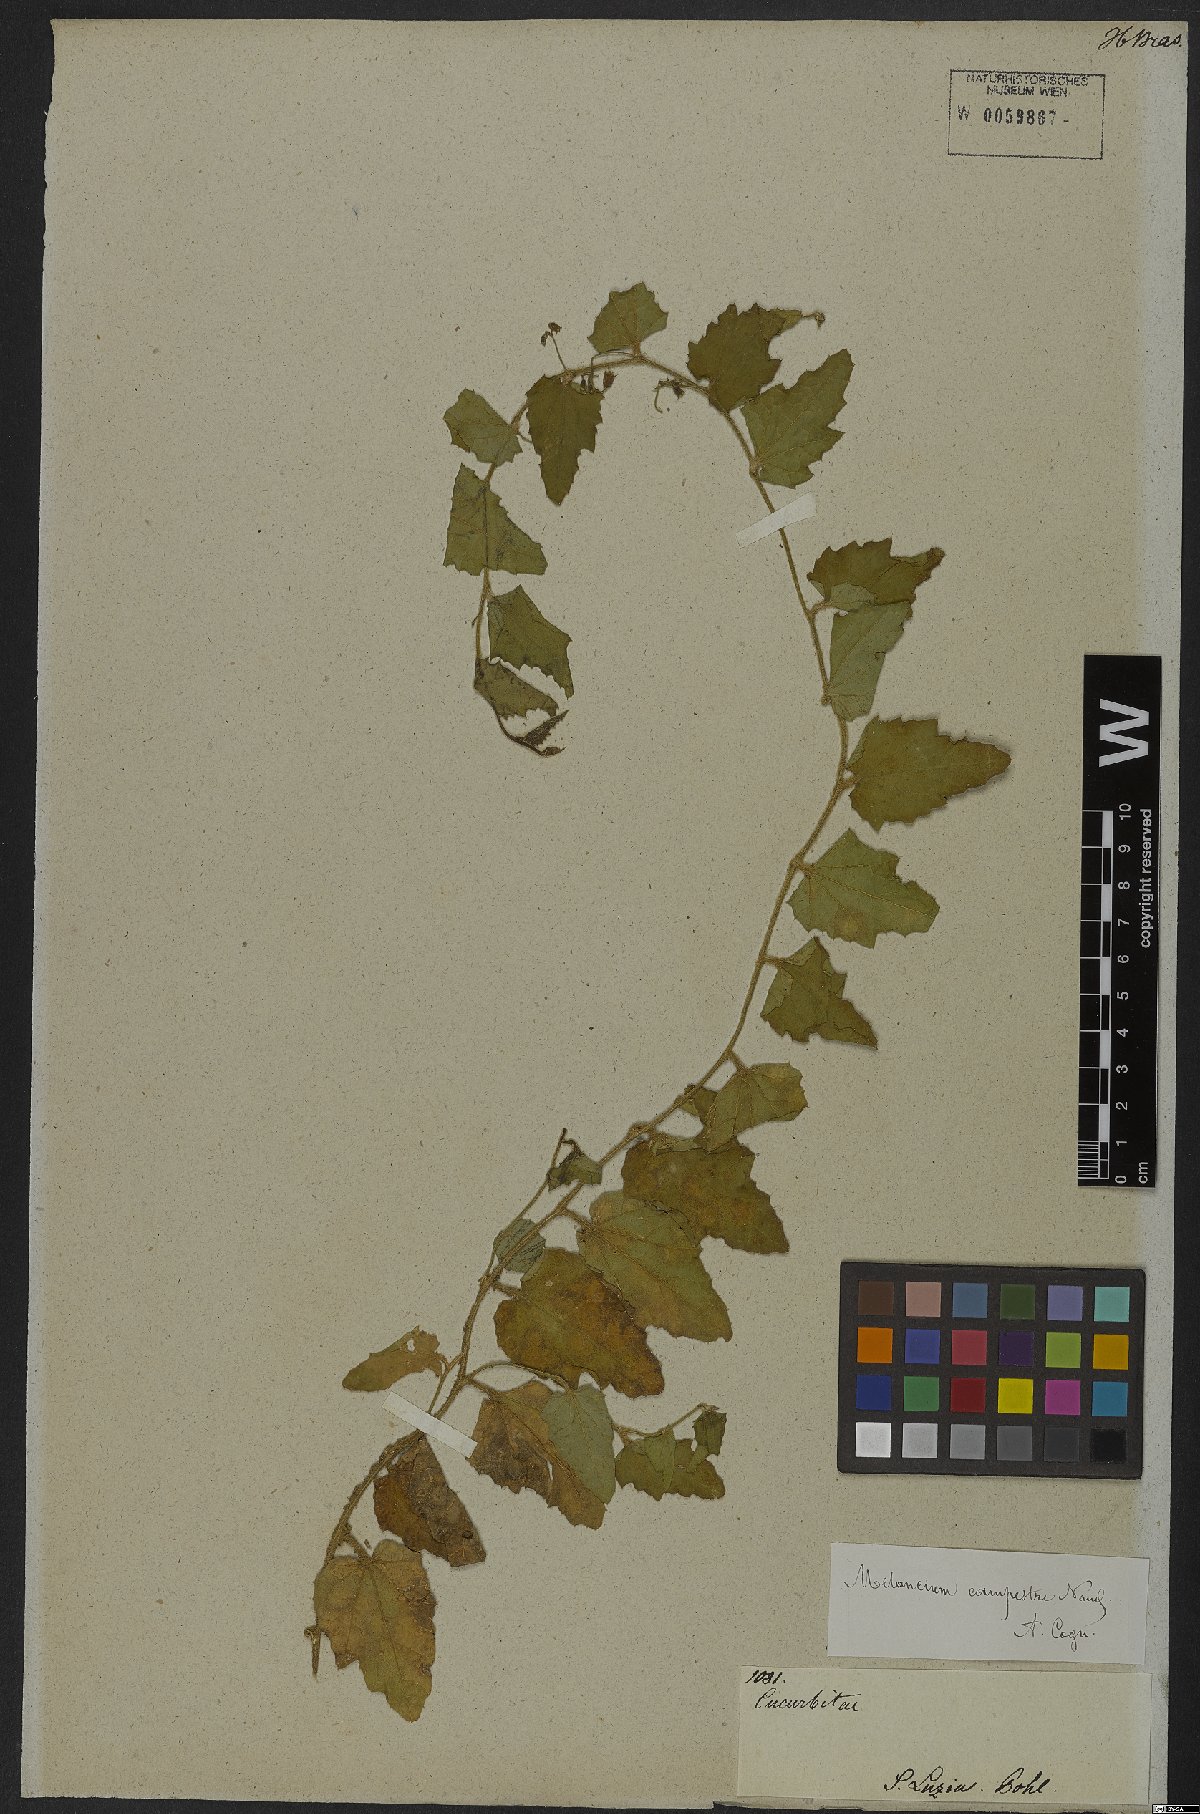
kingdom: Plantae
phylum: Tracheophyta
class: Magnoliopsida
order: Cucurbitales
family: Cucurbitaceae
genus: Melothria
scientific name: Melothria campestris
